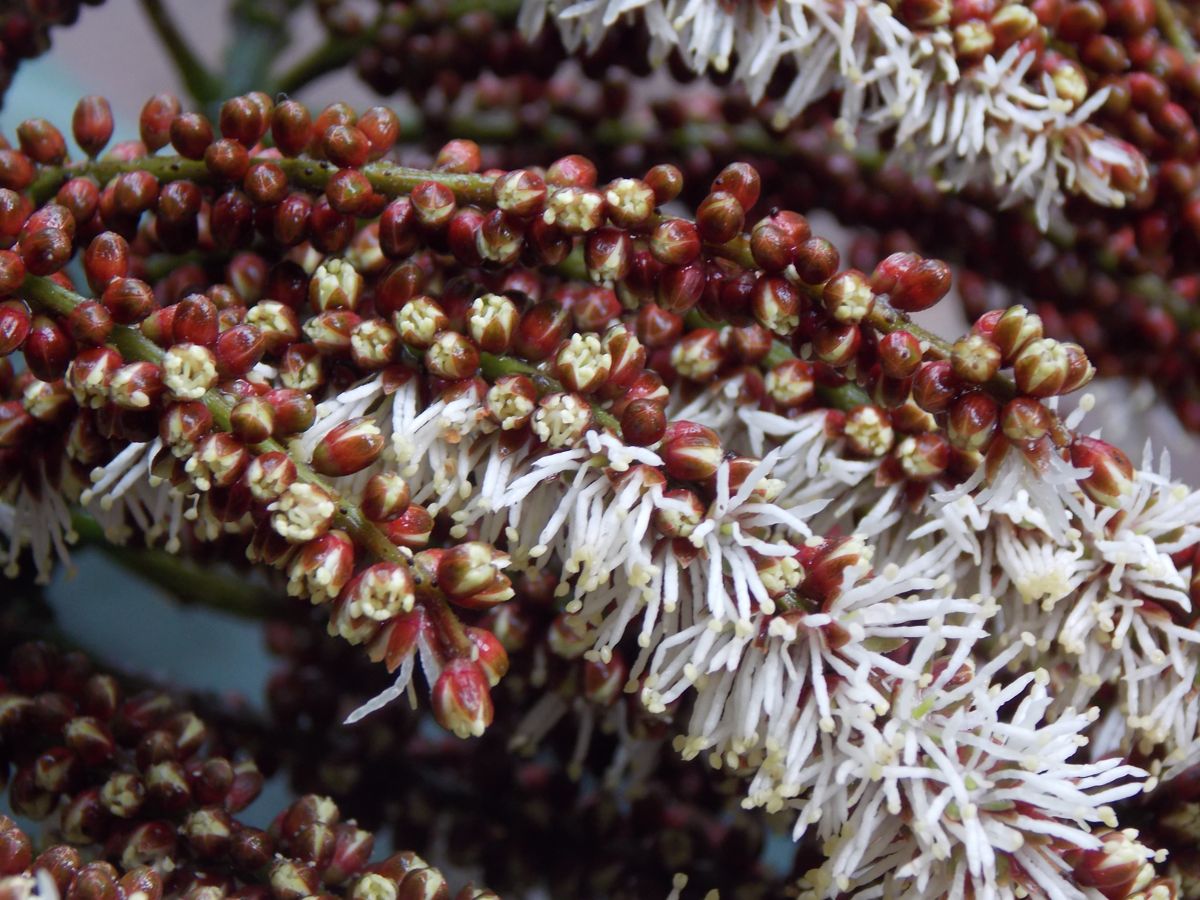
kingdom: Plantae
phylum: Tracheophyta
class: Magnoliopsida
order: Fabales
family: Fabaceae
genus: Entada
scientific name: Entada polystachya
